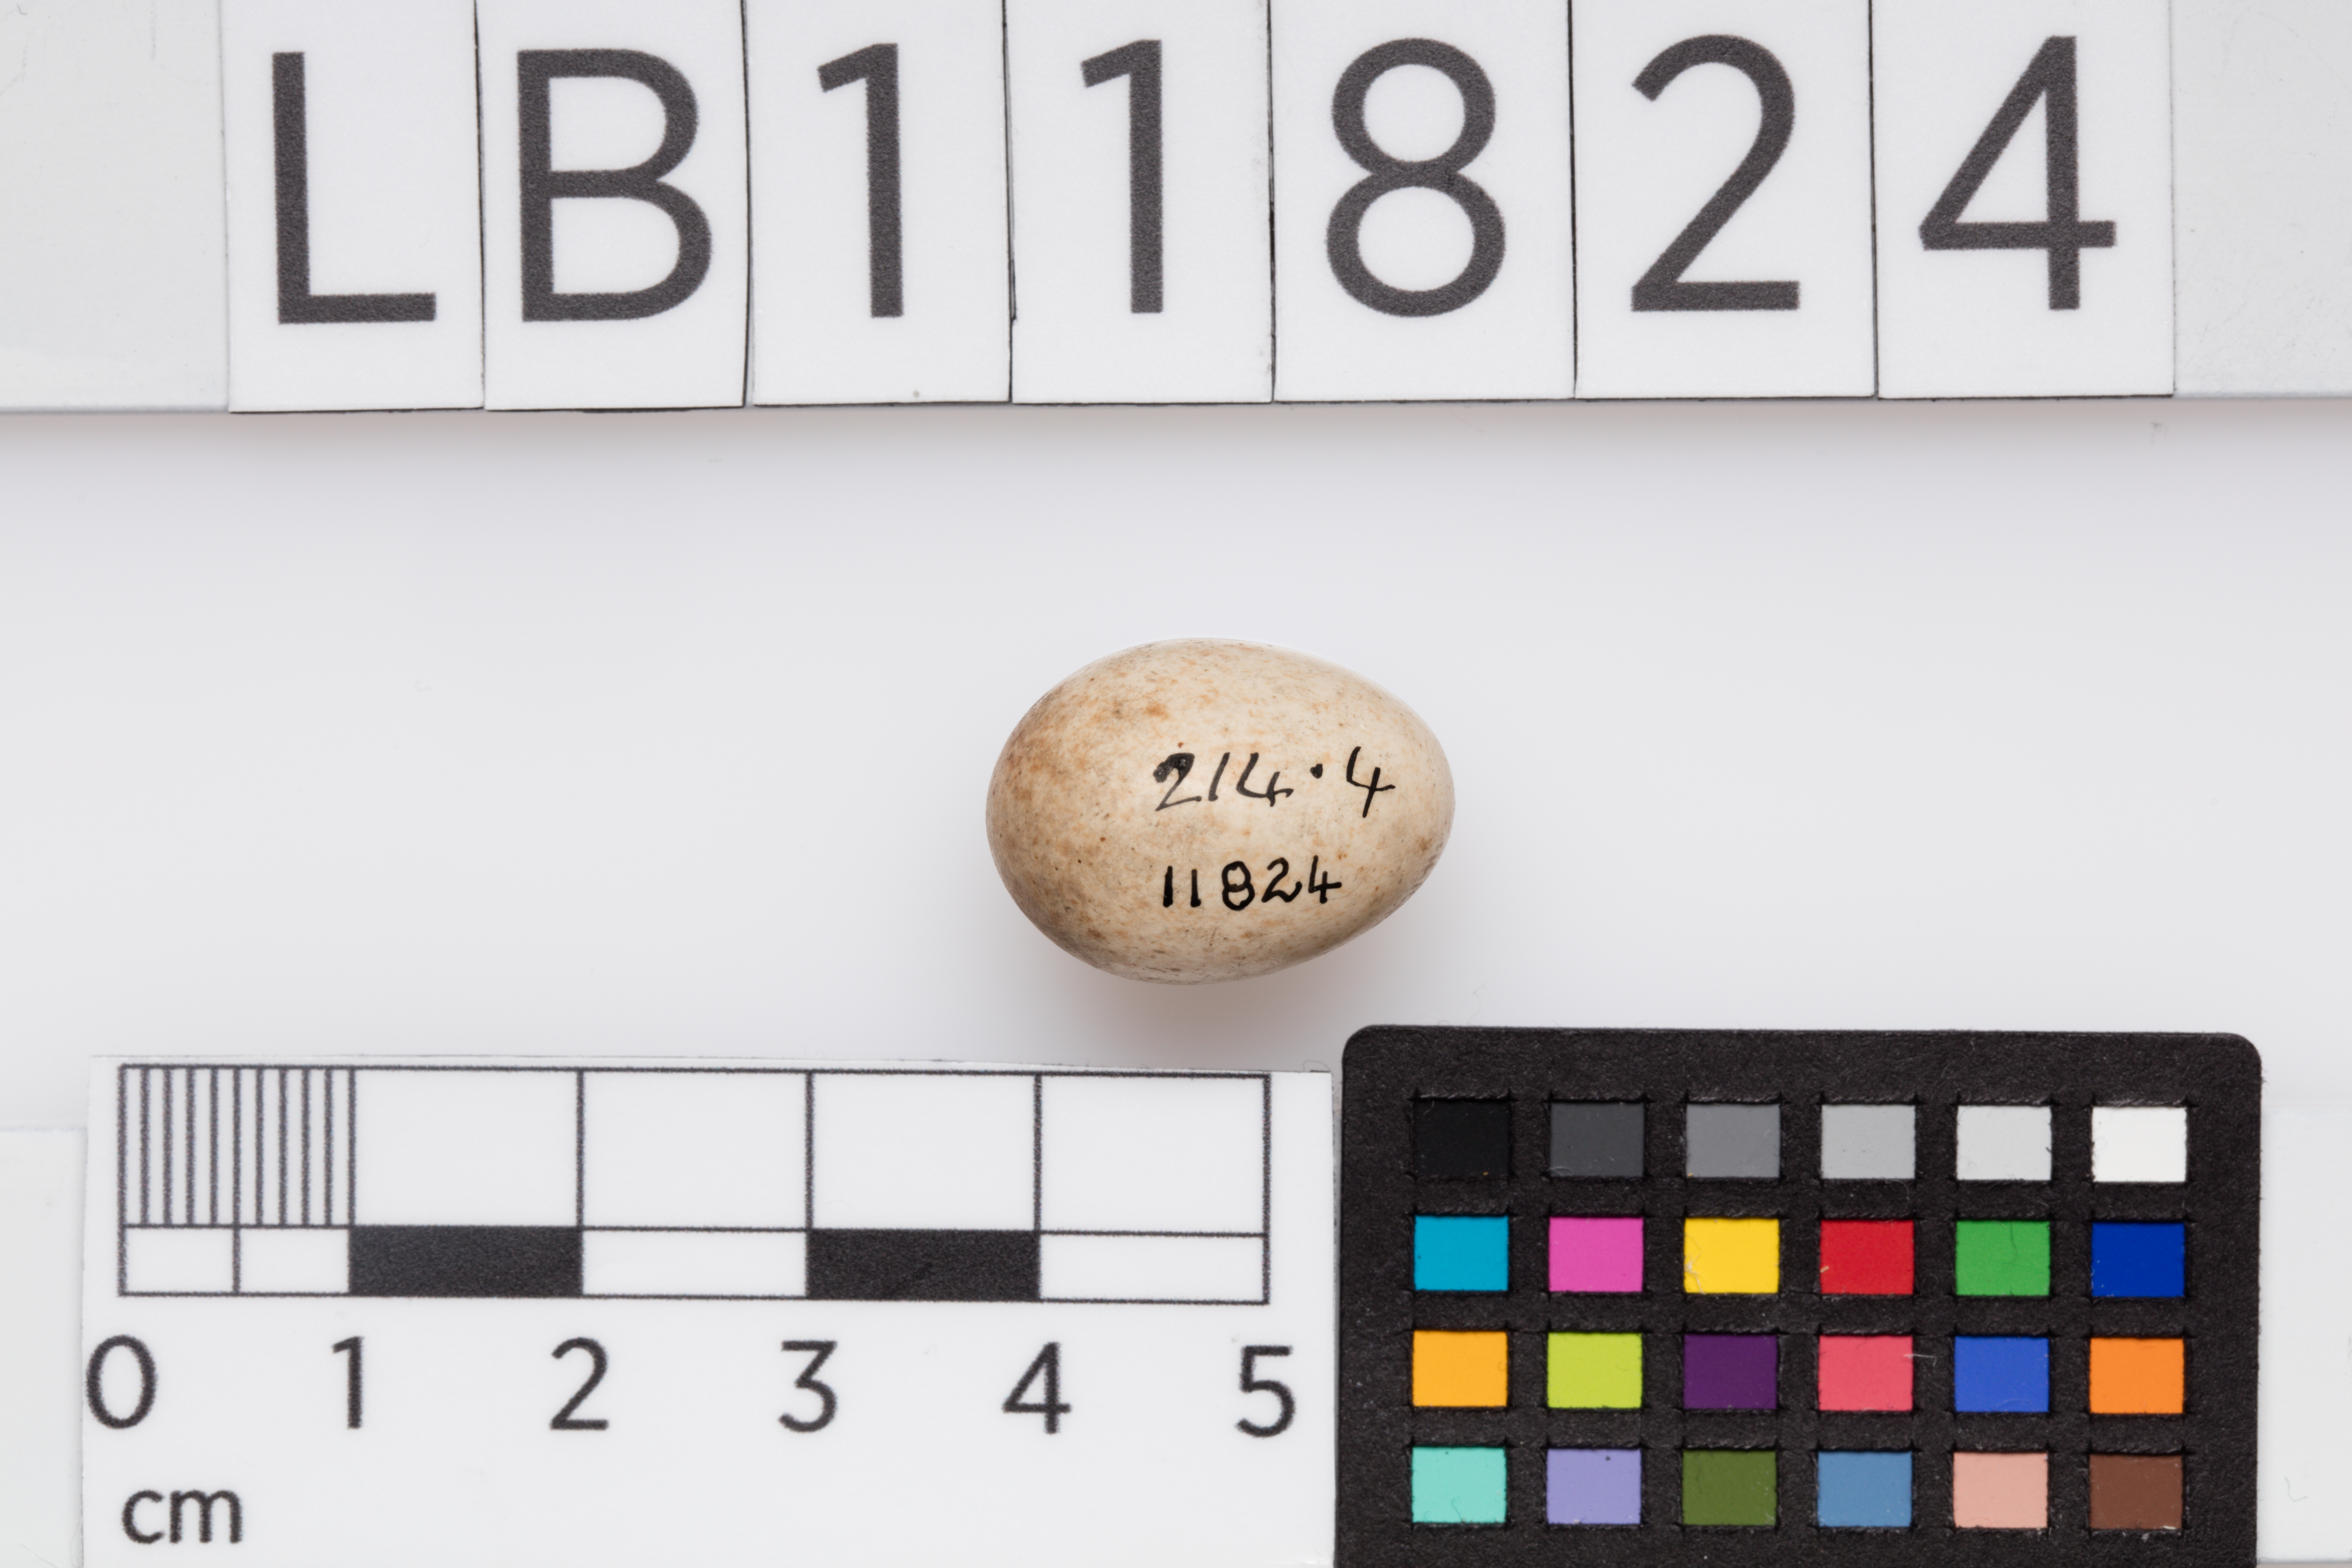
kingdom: Animalia
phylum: Chordata
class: Aves
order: Passeriformes
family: Muscicapidae
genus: Erithacus
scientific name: Erithacus rubecula
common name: European robin
